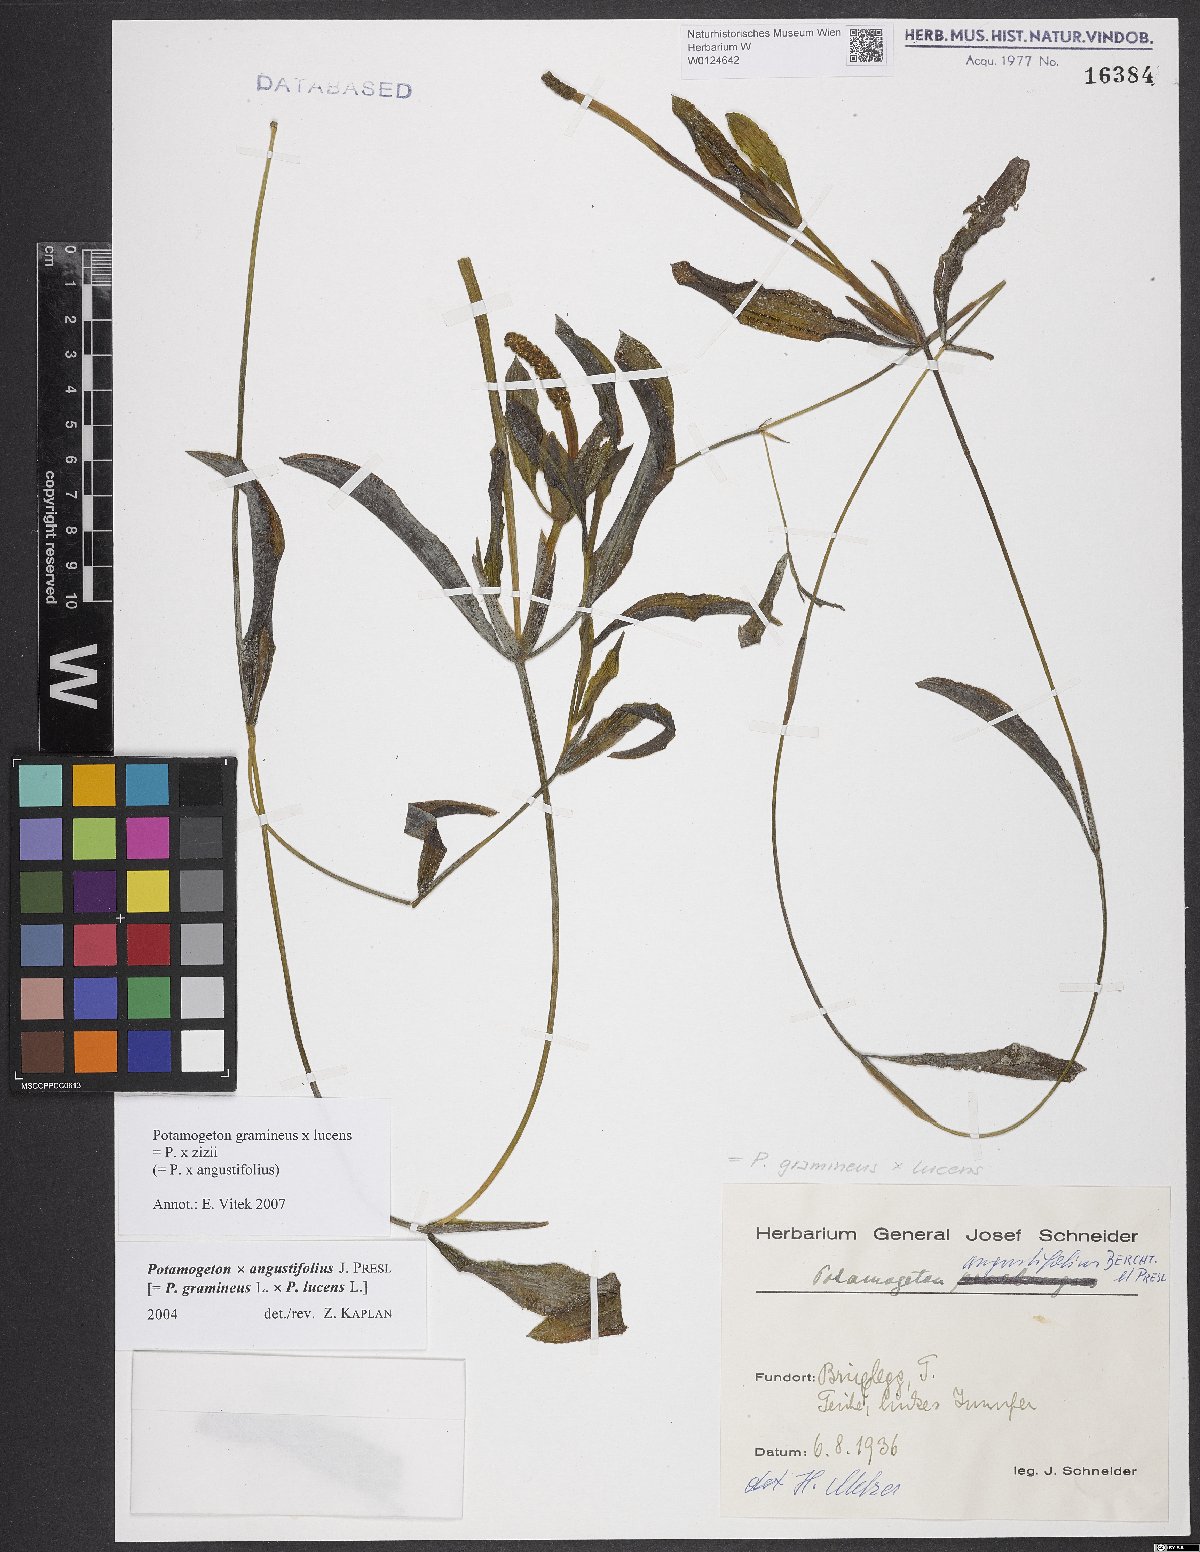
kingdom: Plantae
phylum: Tracheophyta
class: Liliopsida
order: Alismatales
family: Potamogetonaceae
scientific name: Potamogetonaceae
